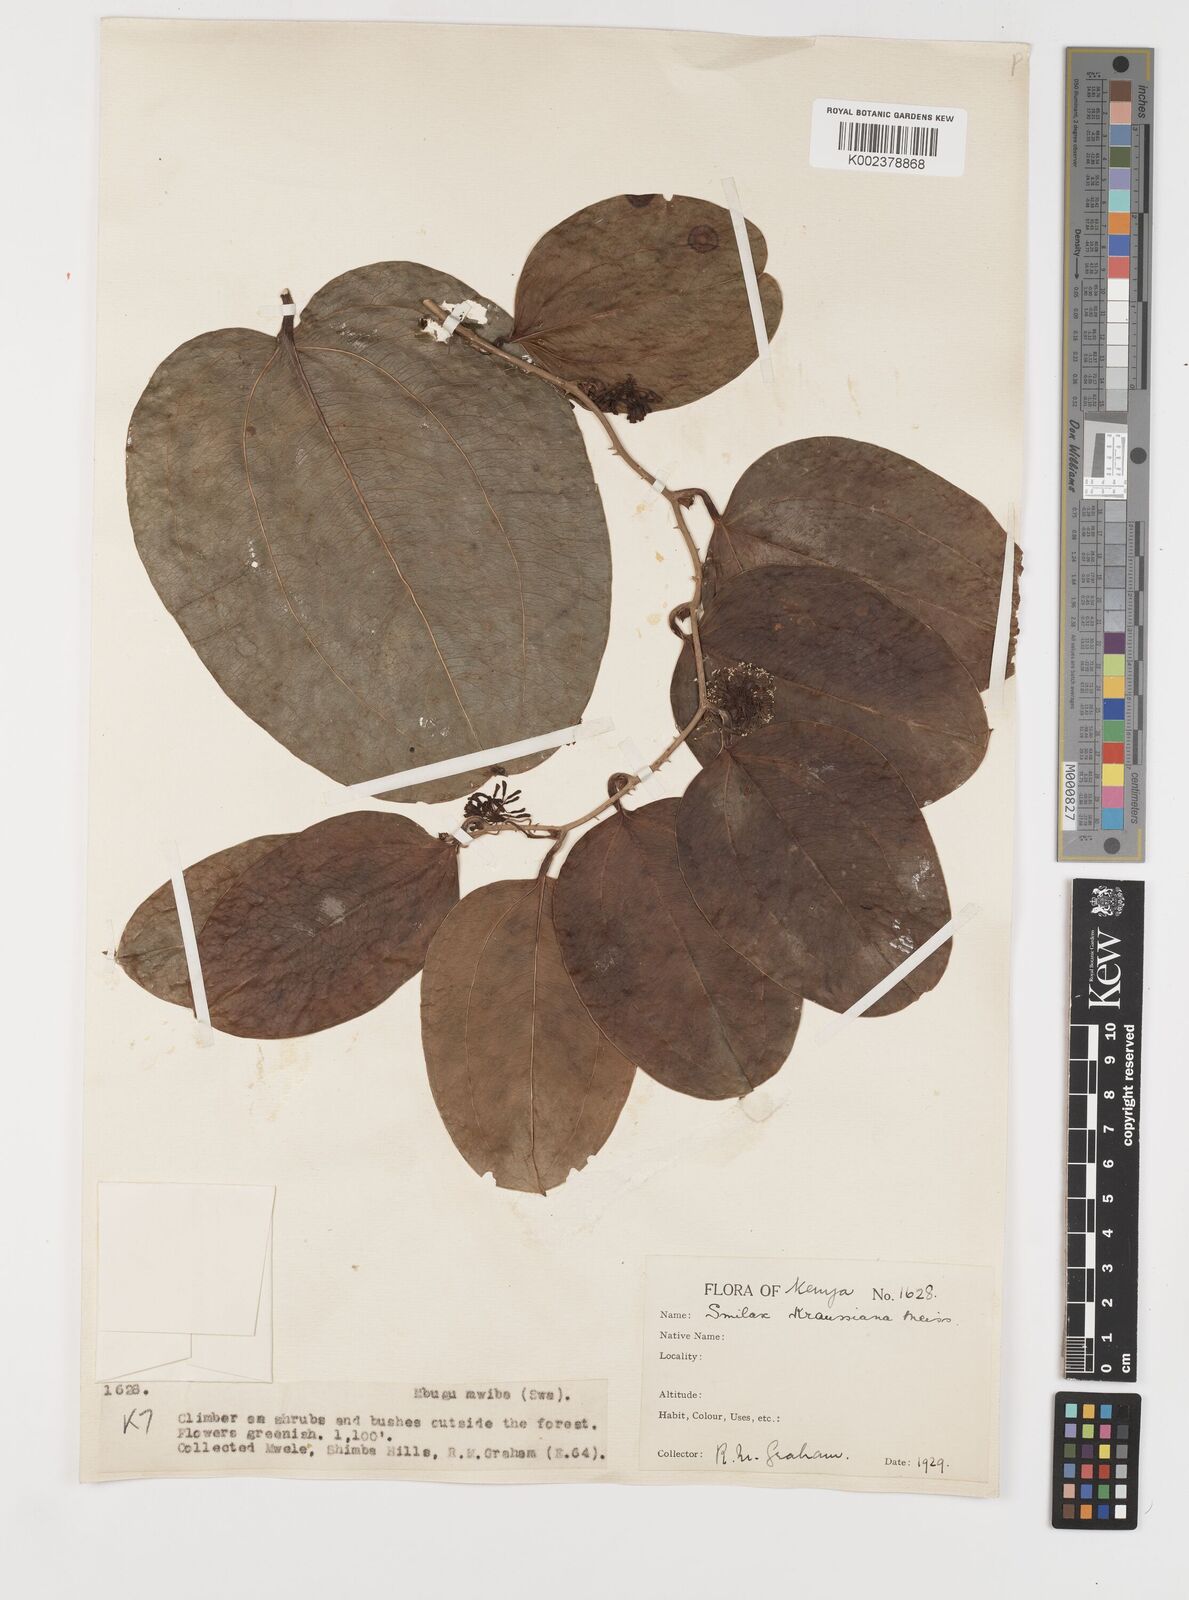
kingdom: Plantae
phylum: Tracheophyta
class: Liliopsida
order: Liliales
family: Smilacaceae
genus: Smilax
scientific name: Smilax anceps
